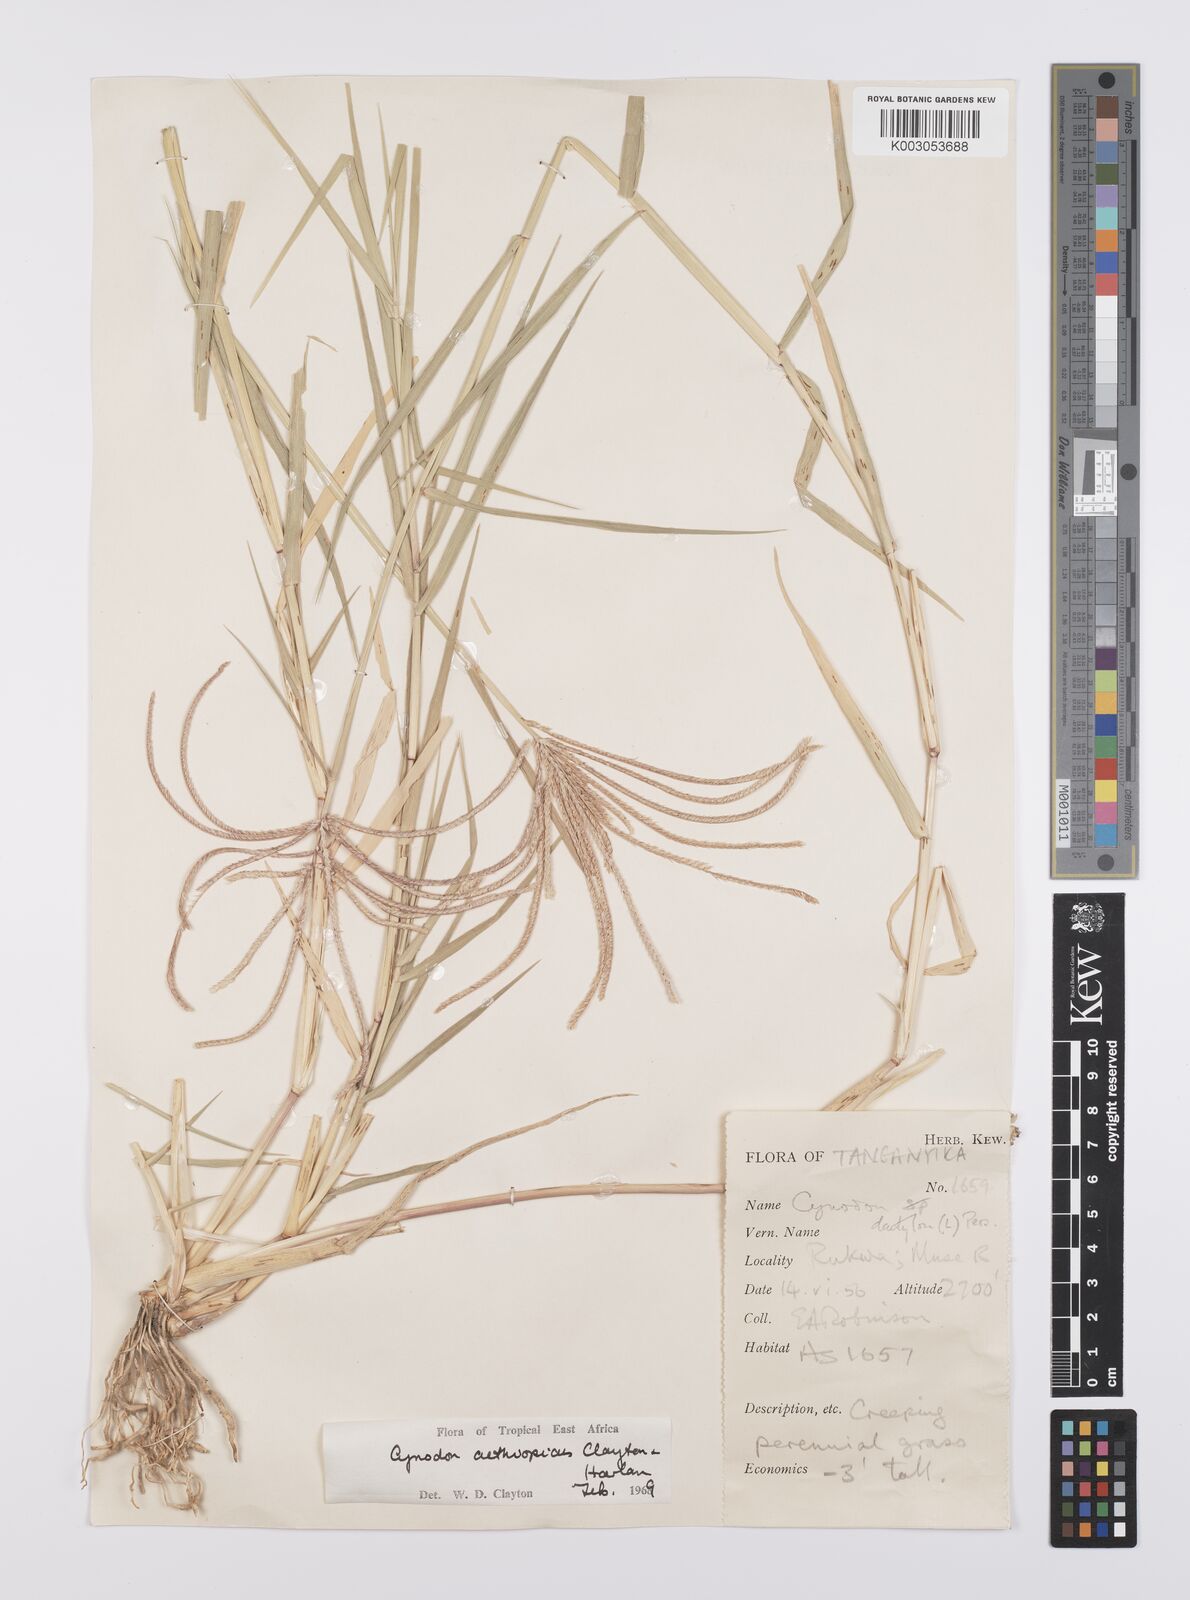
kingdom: Plantae
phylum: Tracheophyta
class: Liliopsida
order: Poales
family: Poaceae
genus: Cynodon
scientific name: Cynodon aethiopicus
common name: Ethiopian dogstooth grass
